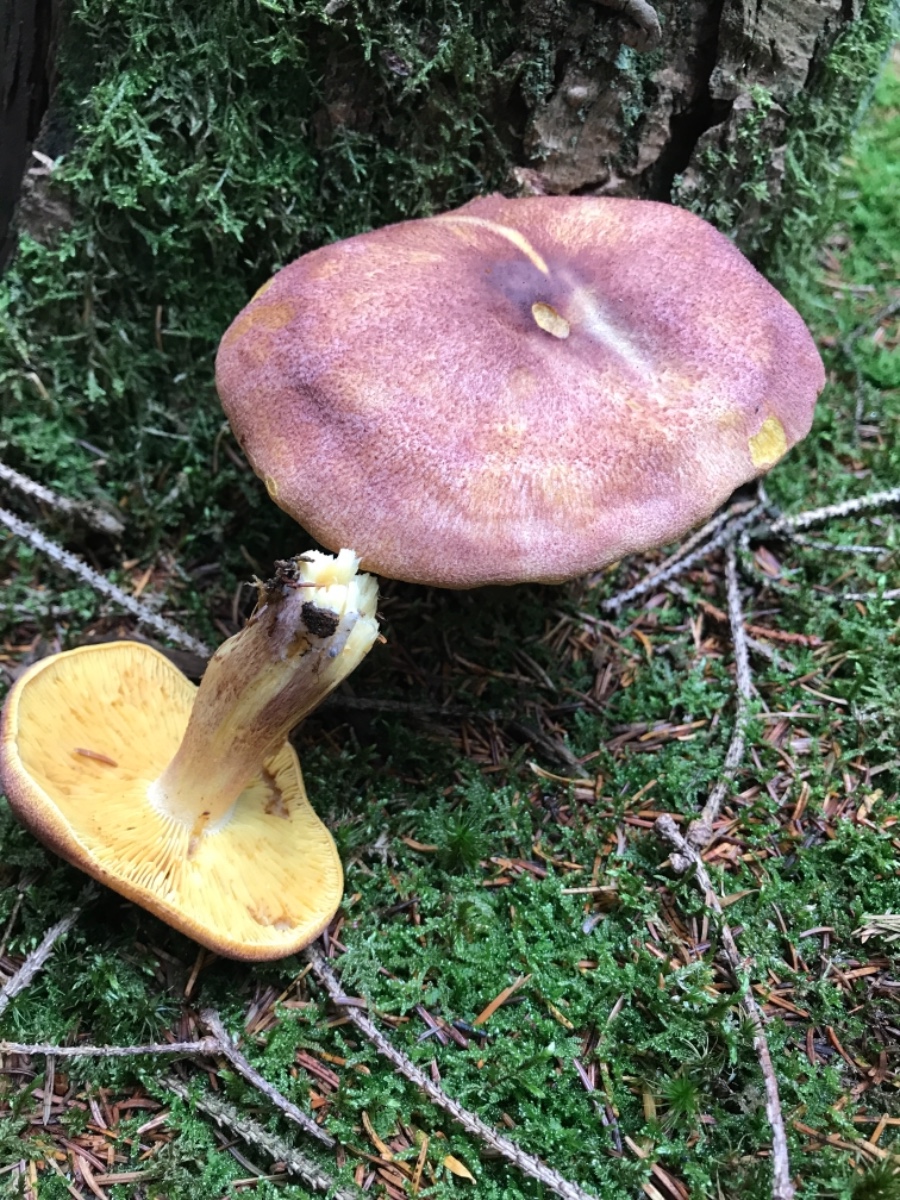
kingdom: Fungi
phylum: Basidiomycota
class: Agaricomycetes
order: Agaricales
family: Tricholomataceae
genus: Tricholomopsis
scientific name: Tricholomopsis rutilans
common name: purpur-væbnerhat
